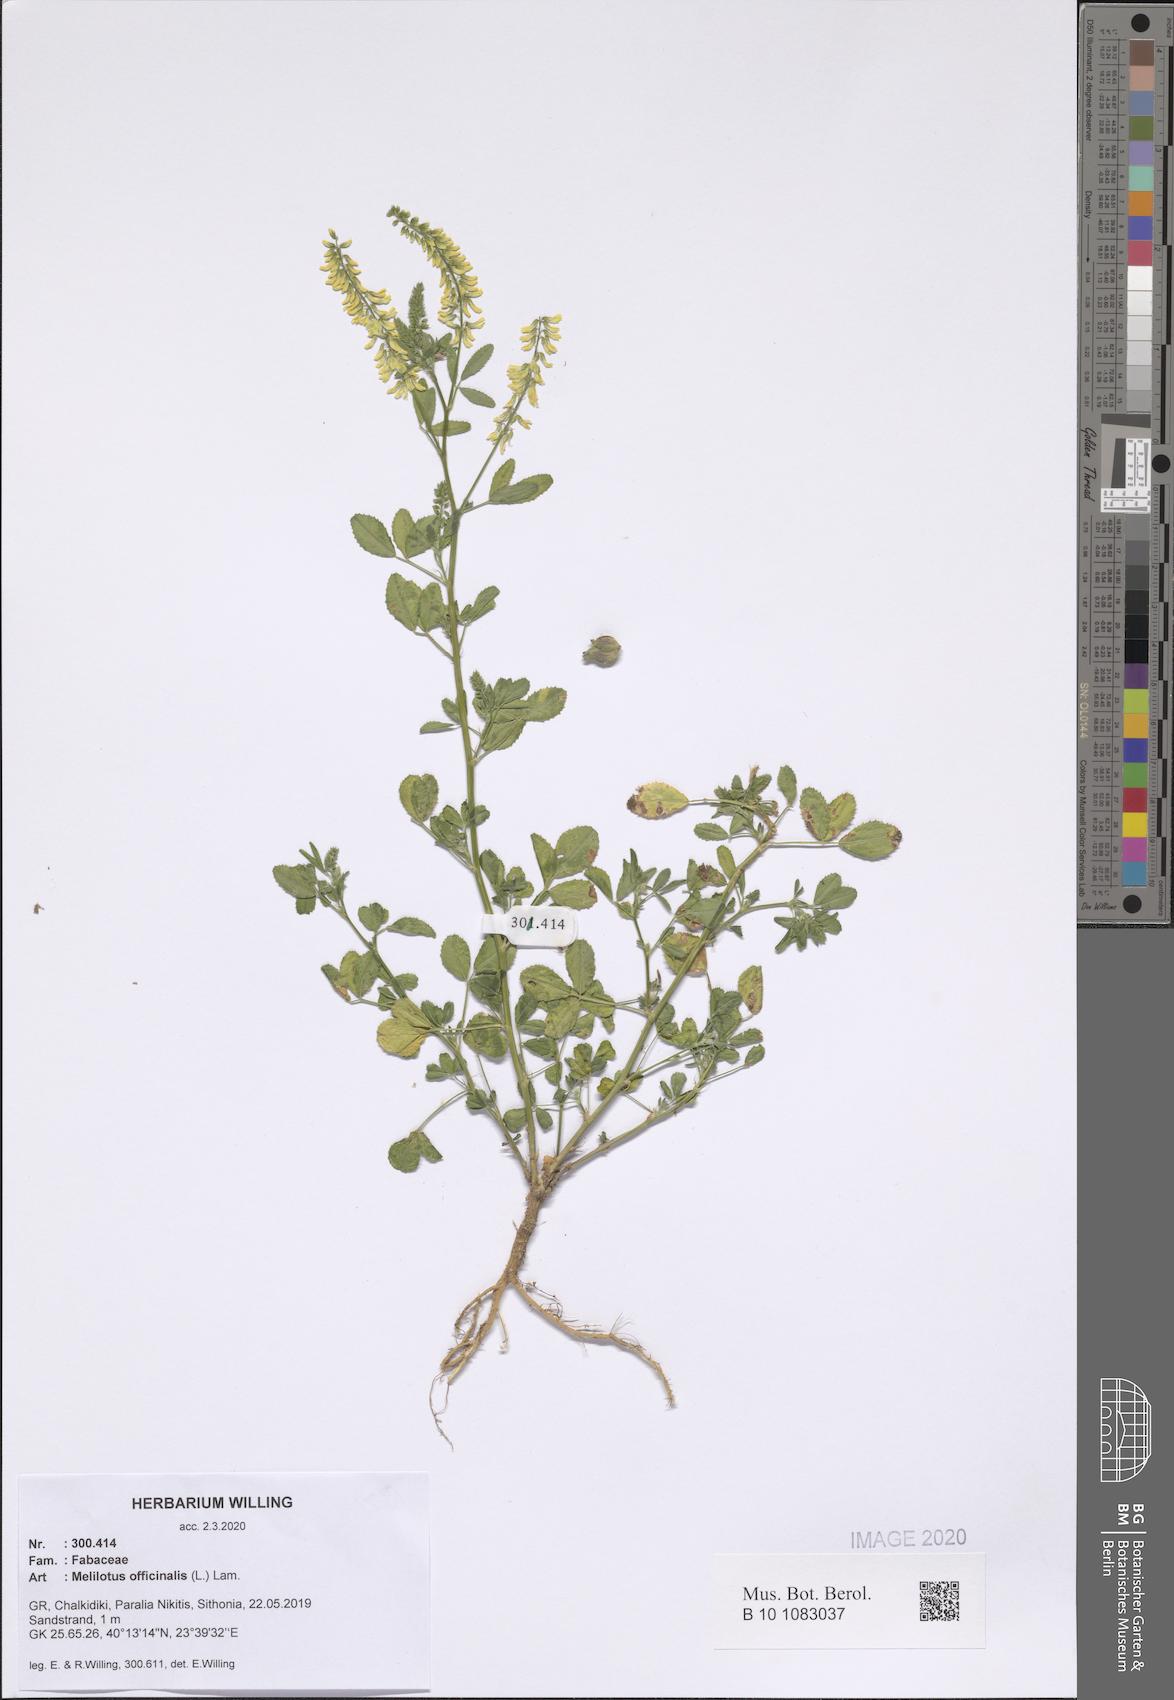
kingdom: Plantae
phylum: Tracheophyta
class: Magnoliopsida
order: Fabales
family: Fabaceae
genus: Melilotus
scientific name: Melilotus officinalis
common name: Sweetclover
